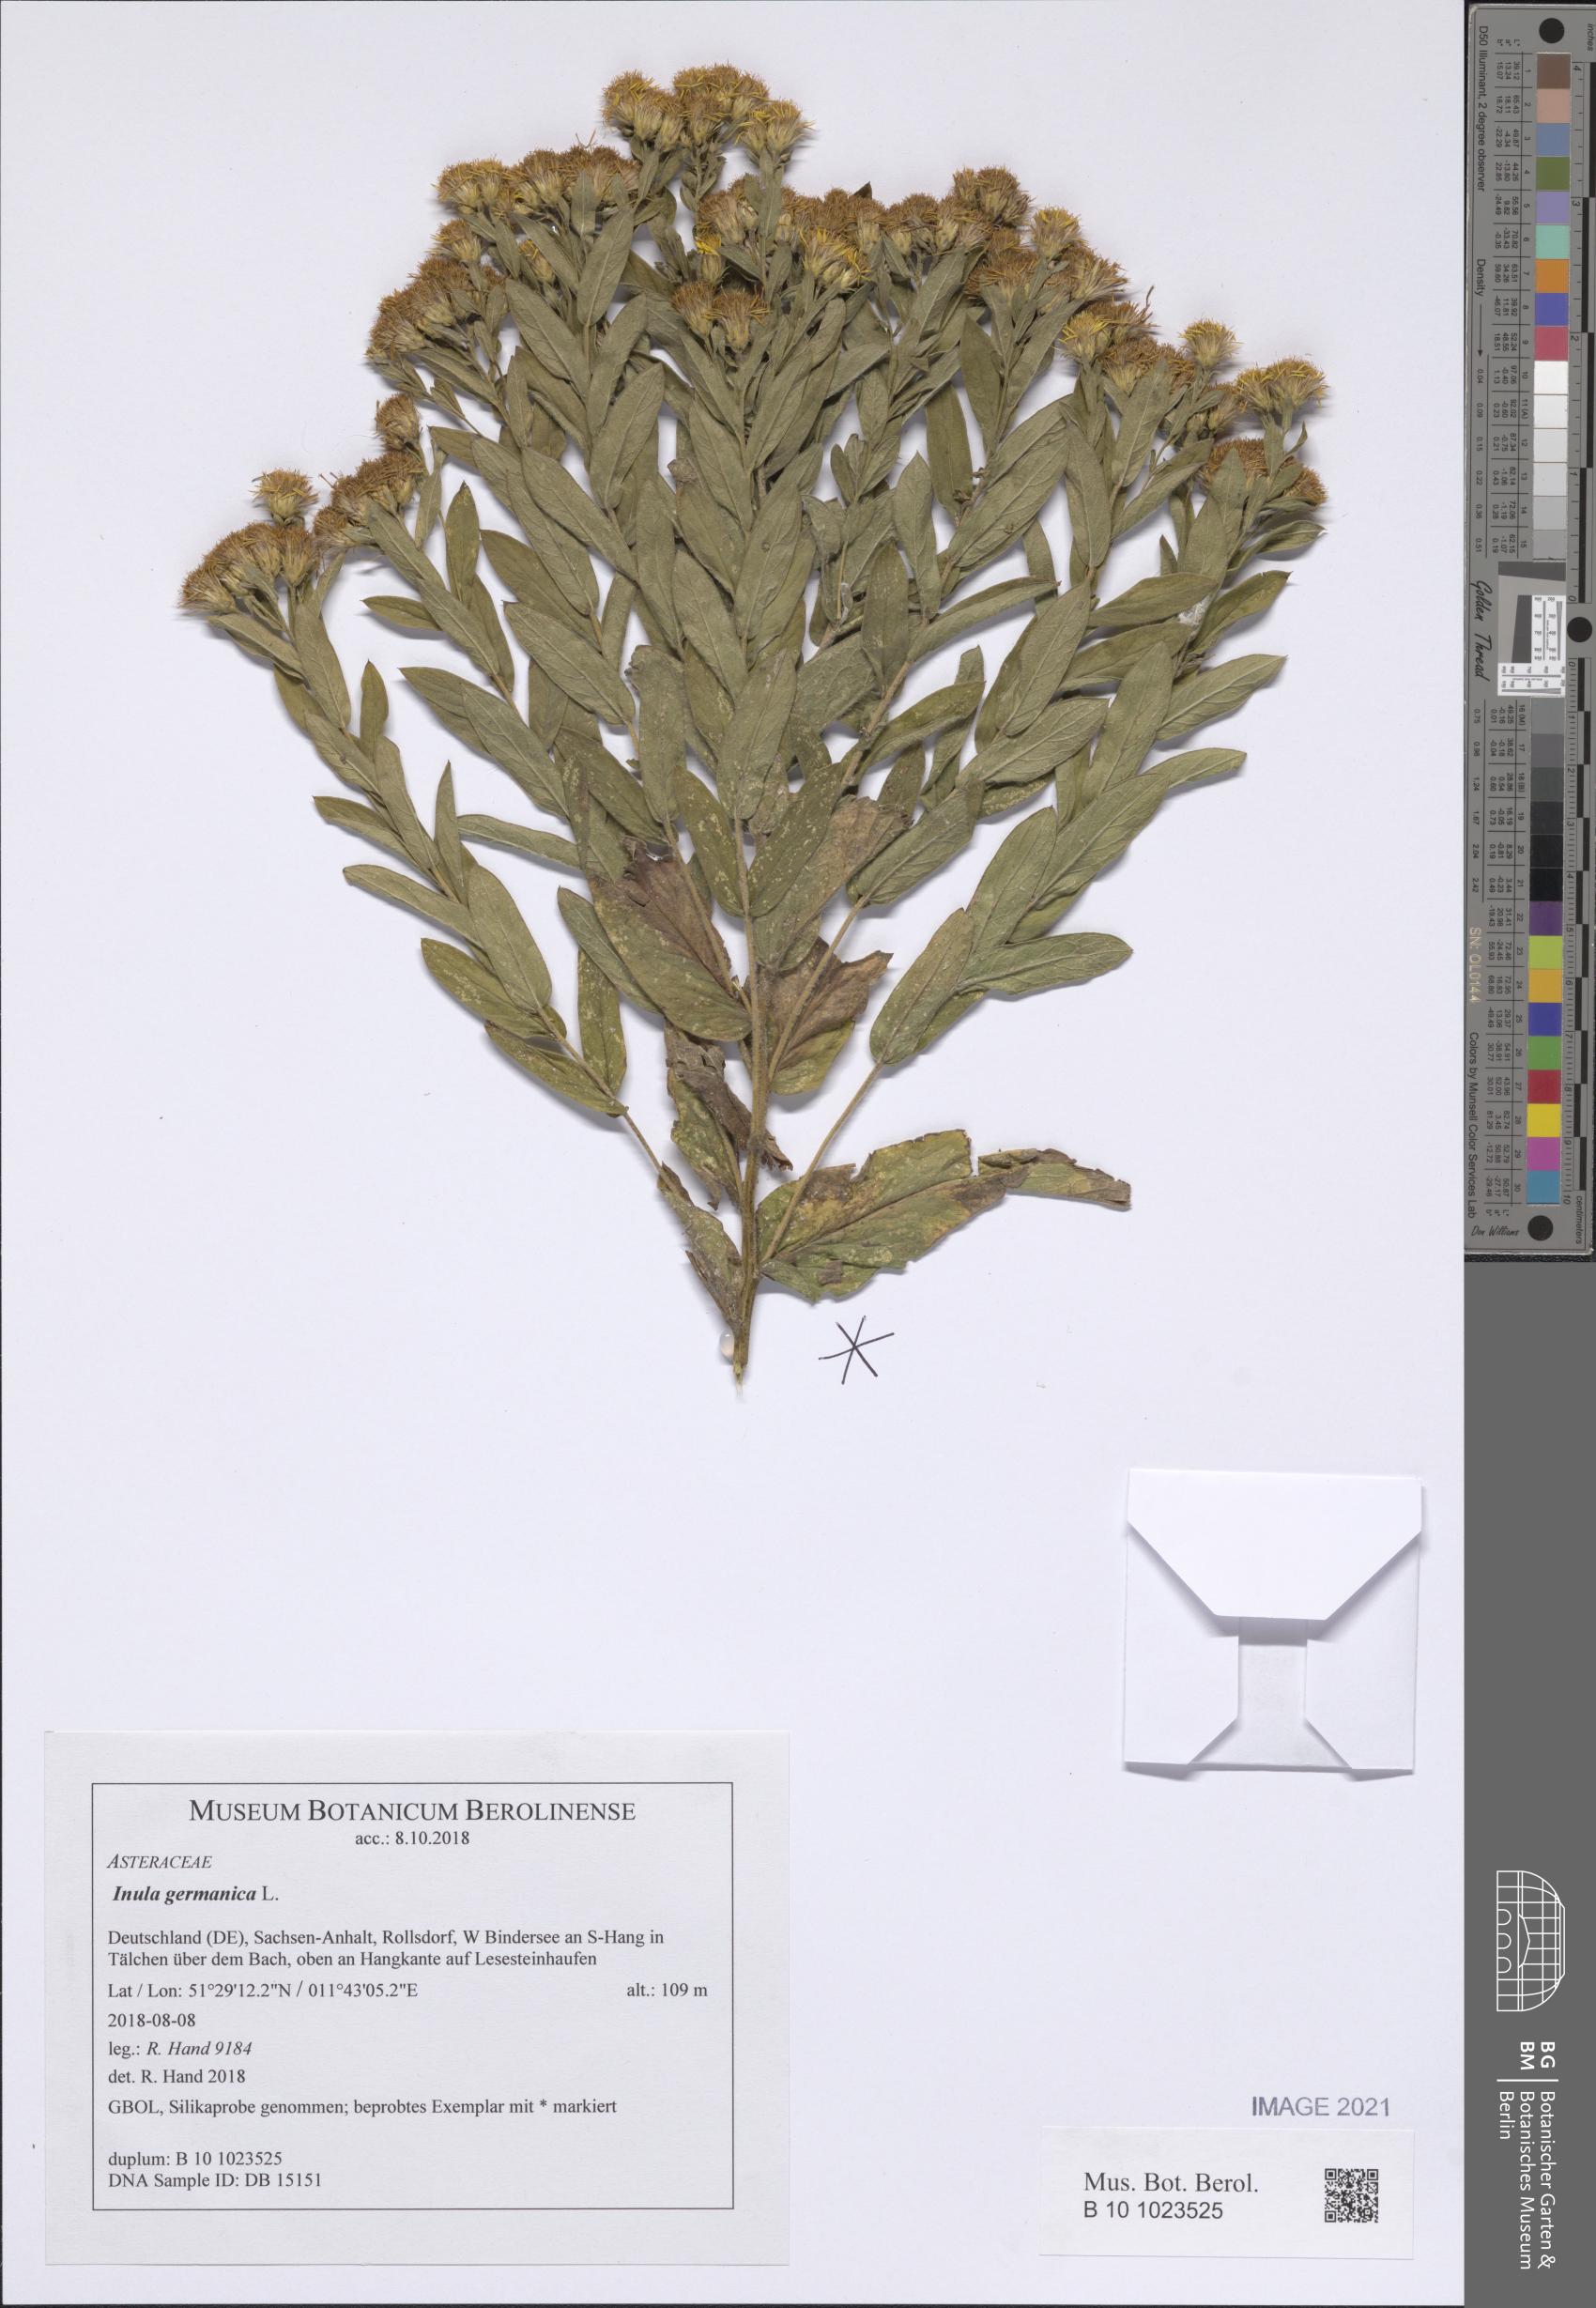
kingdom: Plantae
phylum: Tracheophyta
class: Magnoliopsida
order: Asterales
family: Asteraceae
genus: Pentanema
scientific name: Pentanema germanicum
